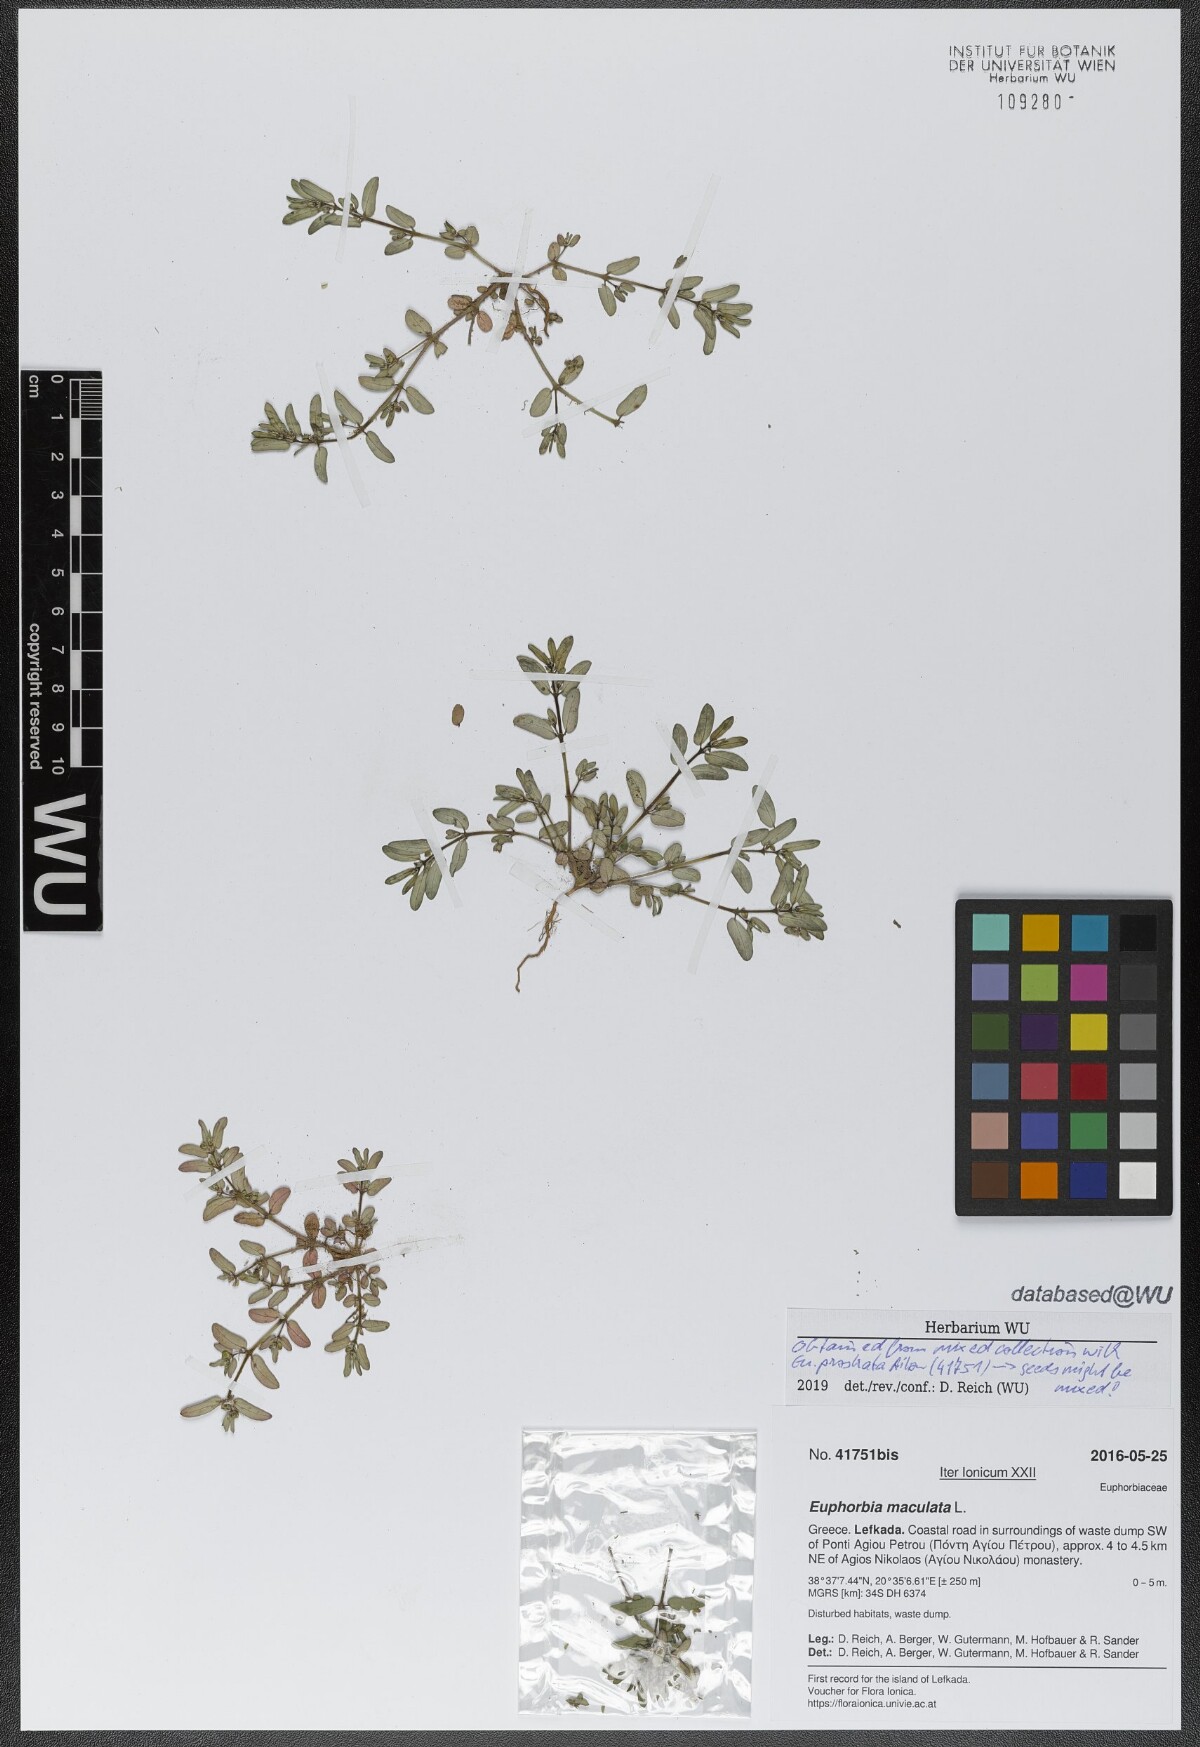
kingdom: Plantae
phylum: Tracheophyta
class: Magnoliopsida
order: Malpighiales
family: Euphorbiaceae
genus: Euphorbia
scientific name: Euphorbia maculata
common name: Spotted spurge
